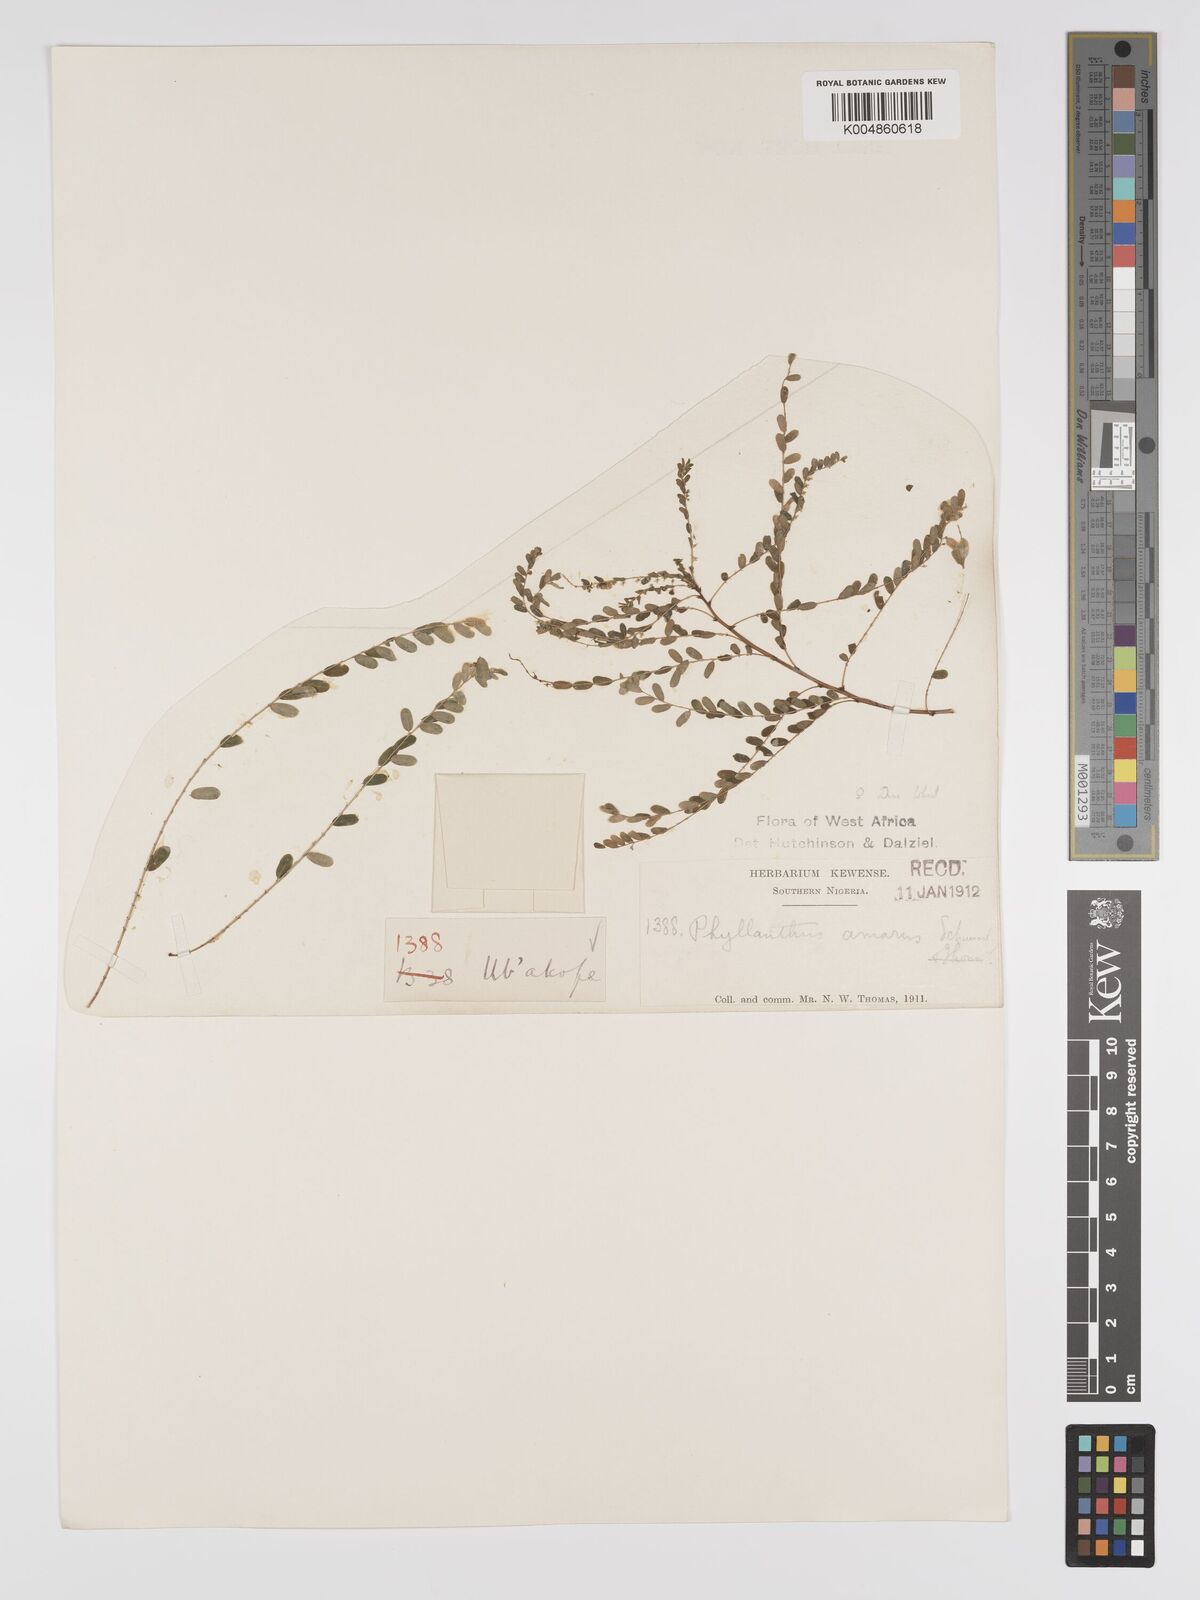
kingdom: Plantae
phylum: Tracheophyta
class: Magnoliopsida
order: Malpighiales
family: Phyllanthaceae
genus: Phyllanthus
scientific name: Phyllanthus amarus
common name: Carry me seed
